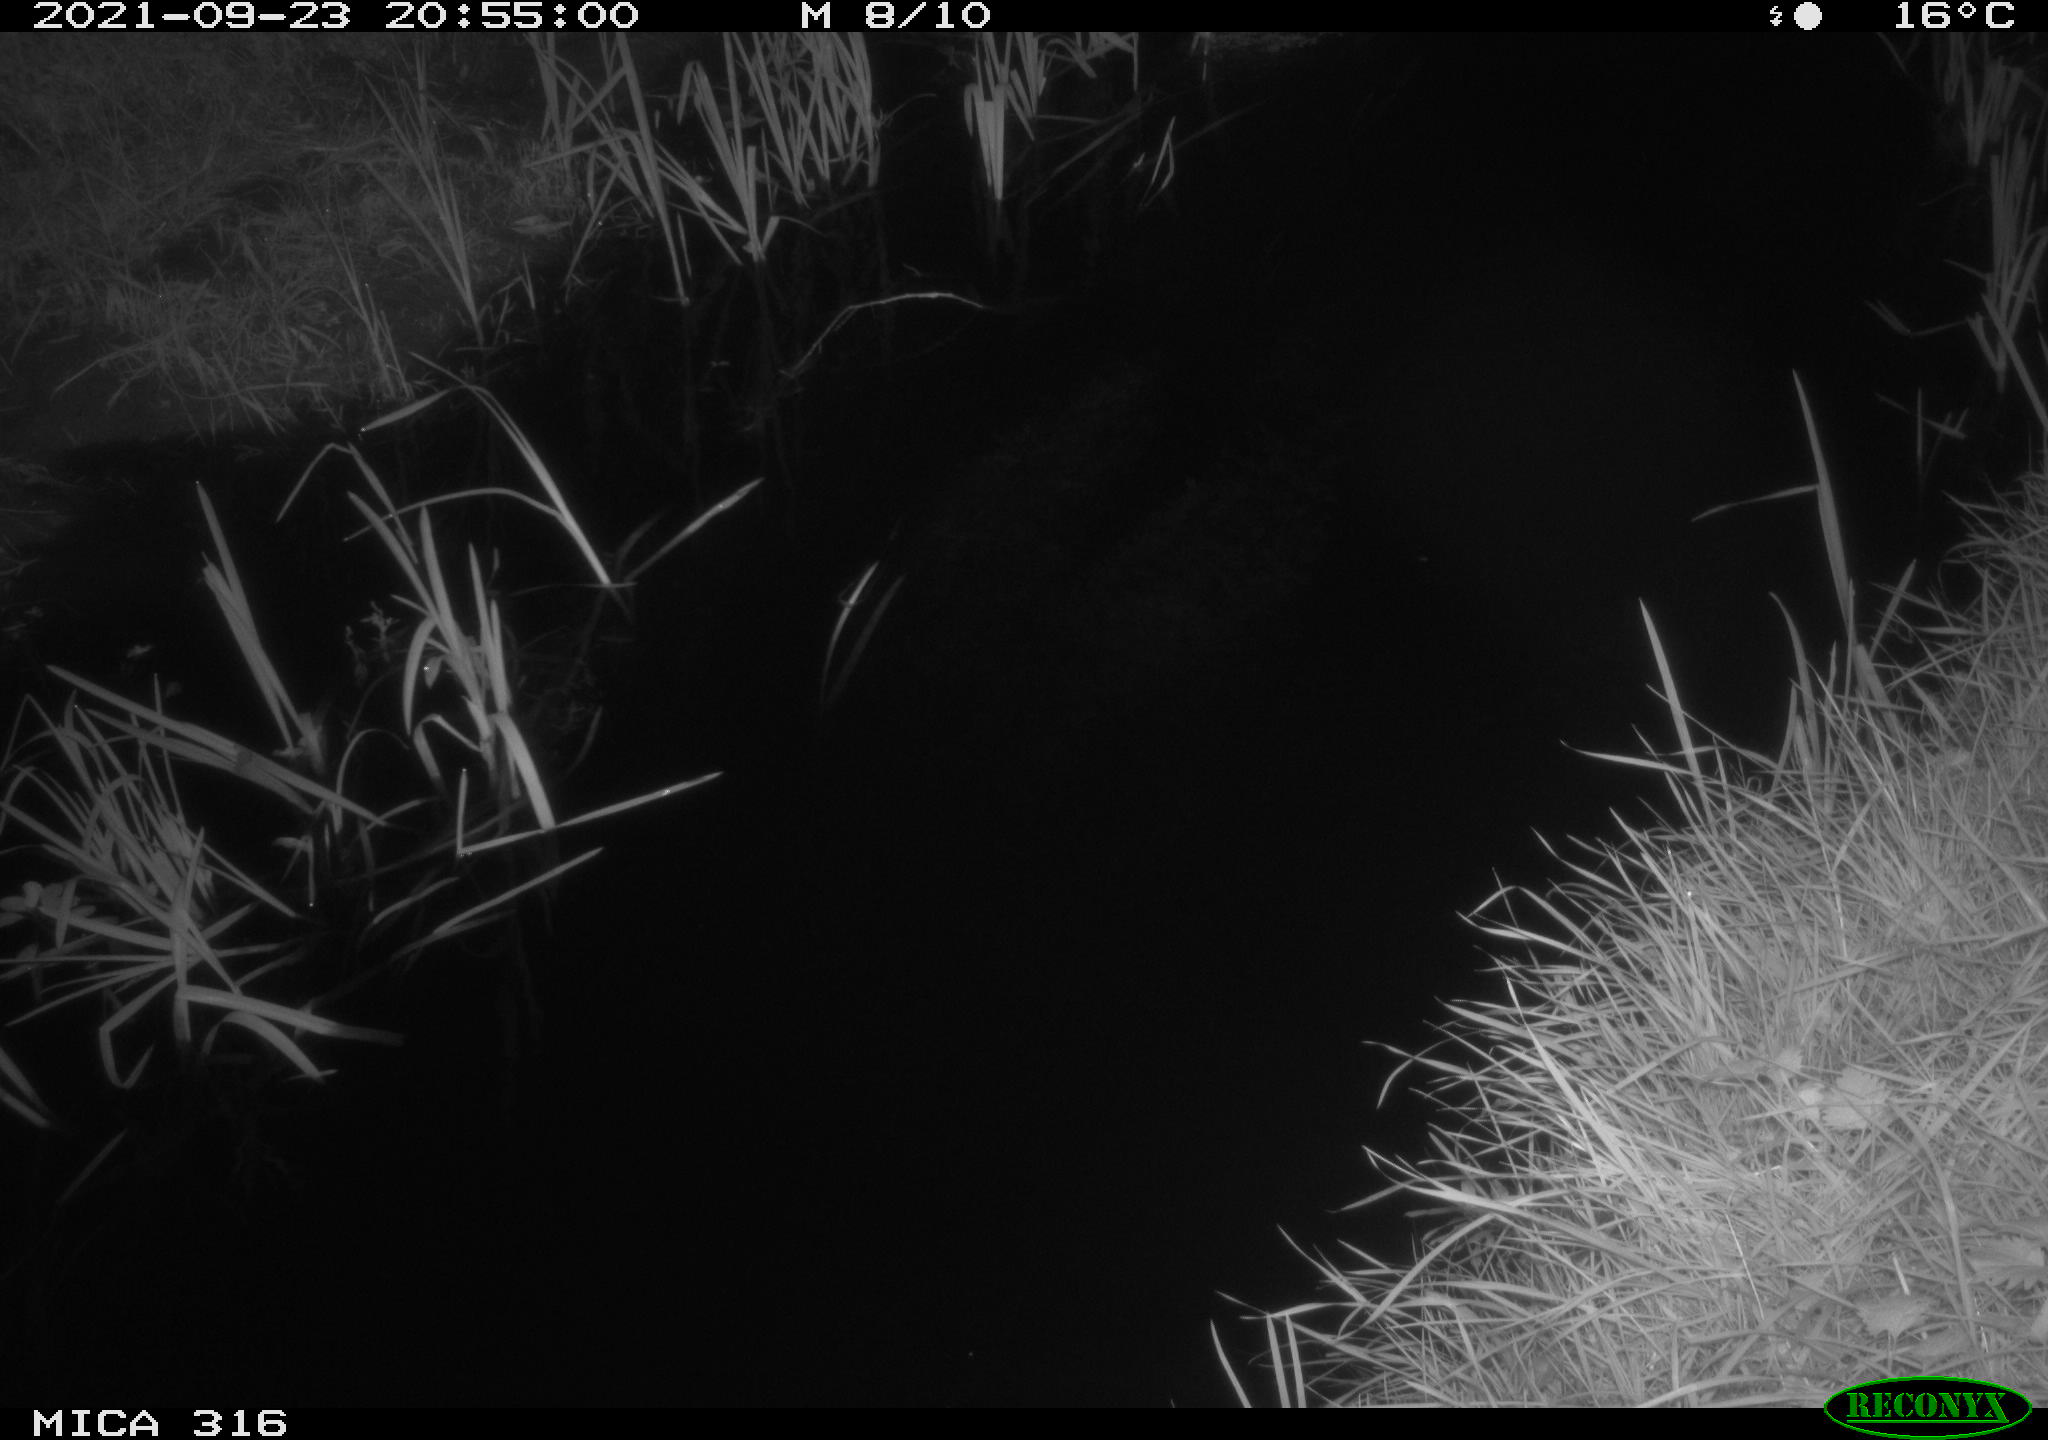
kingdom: Animalia
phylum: Chordata
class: Mammalia
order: Rodentia
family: Muridae
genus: Rattus
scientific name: Rattus norvegicus
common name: Brown rat
